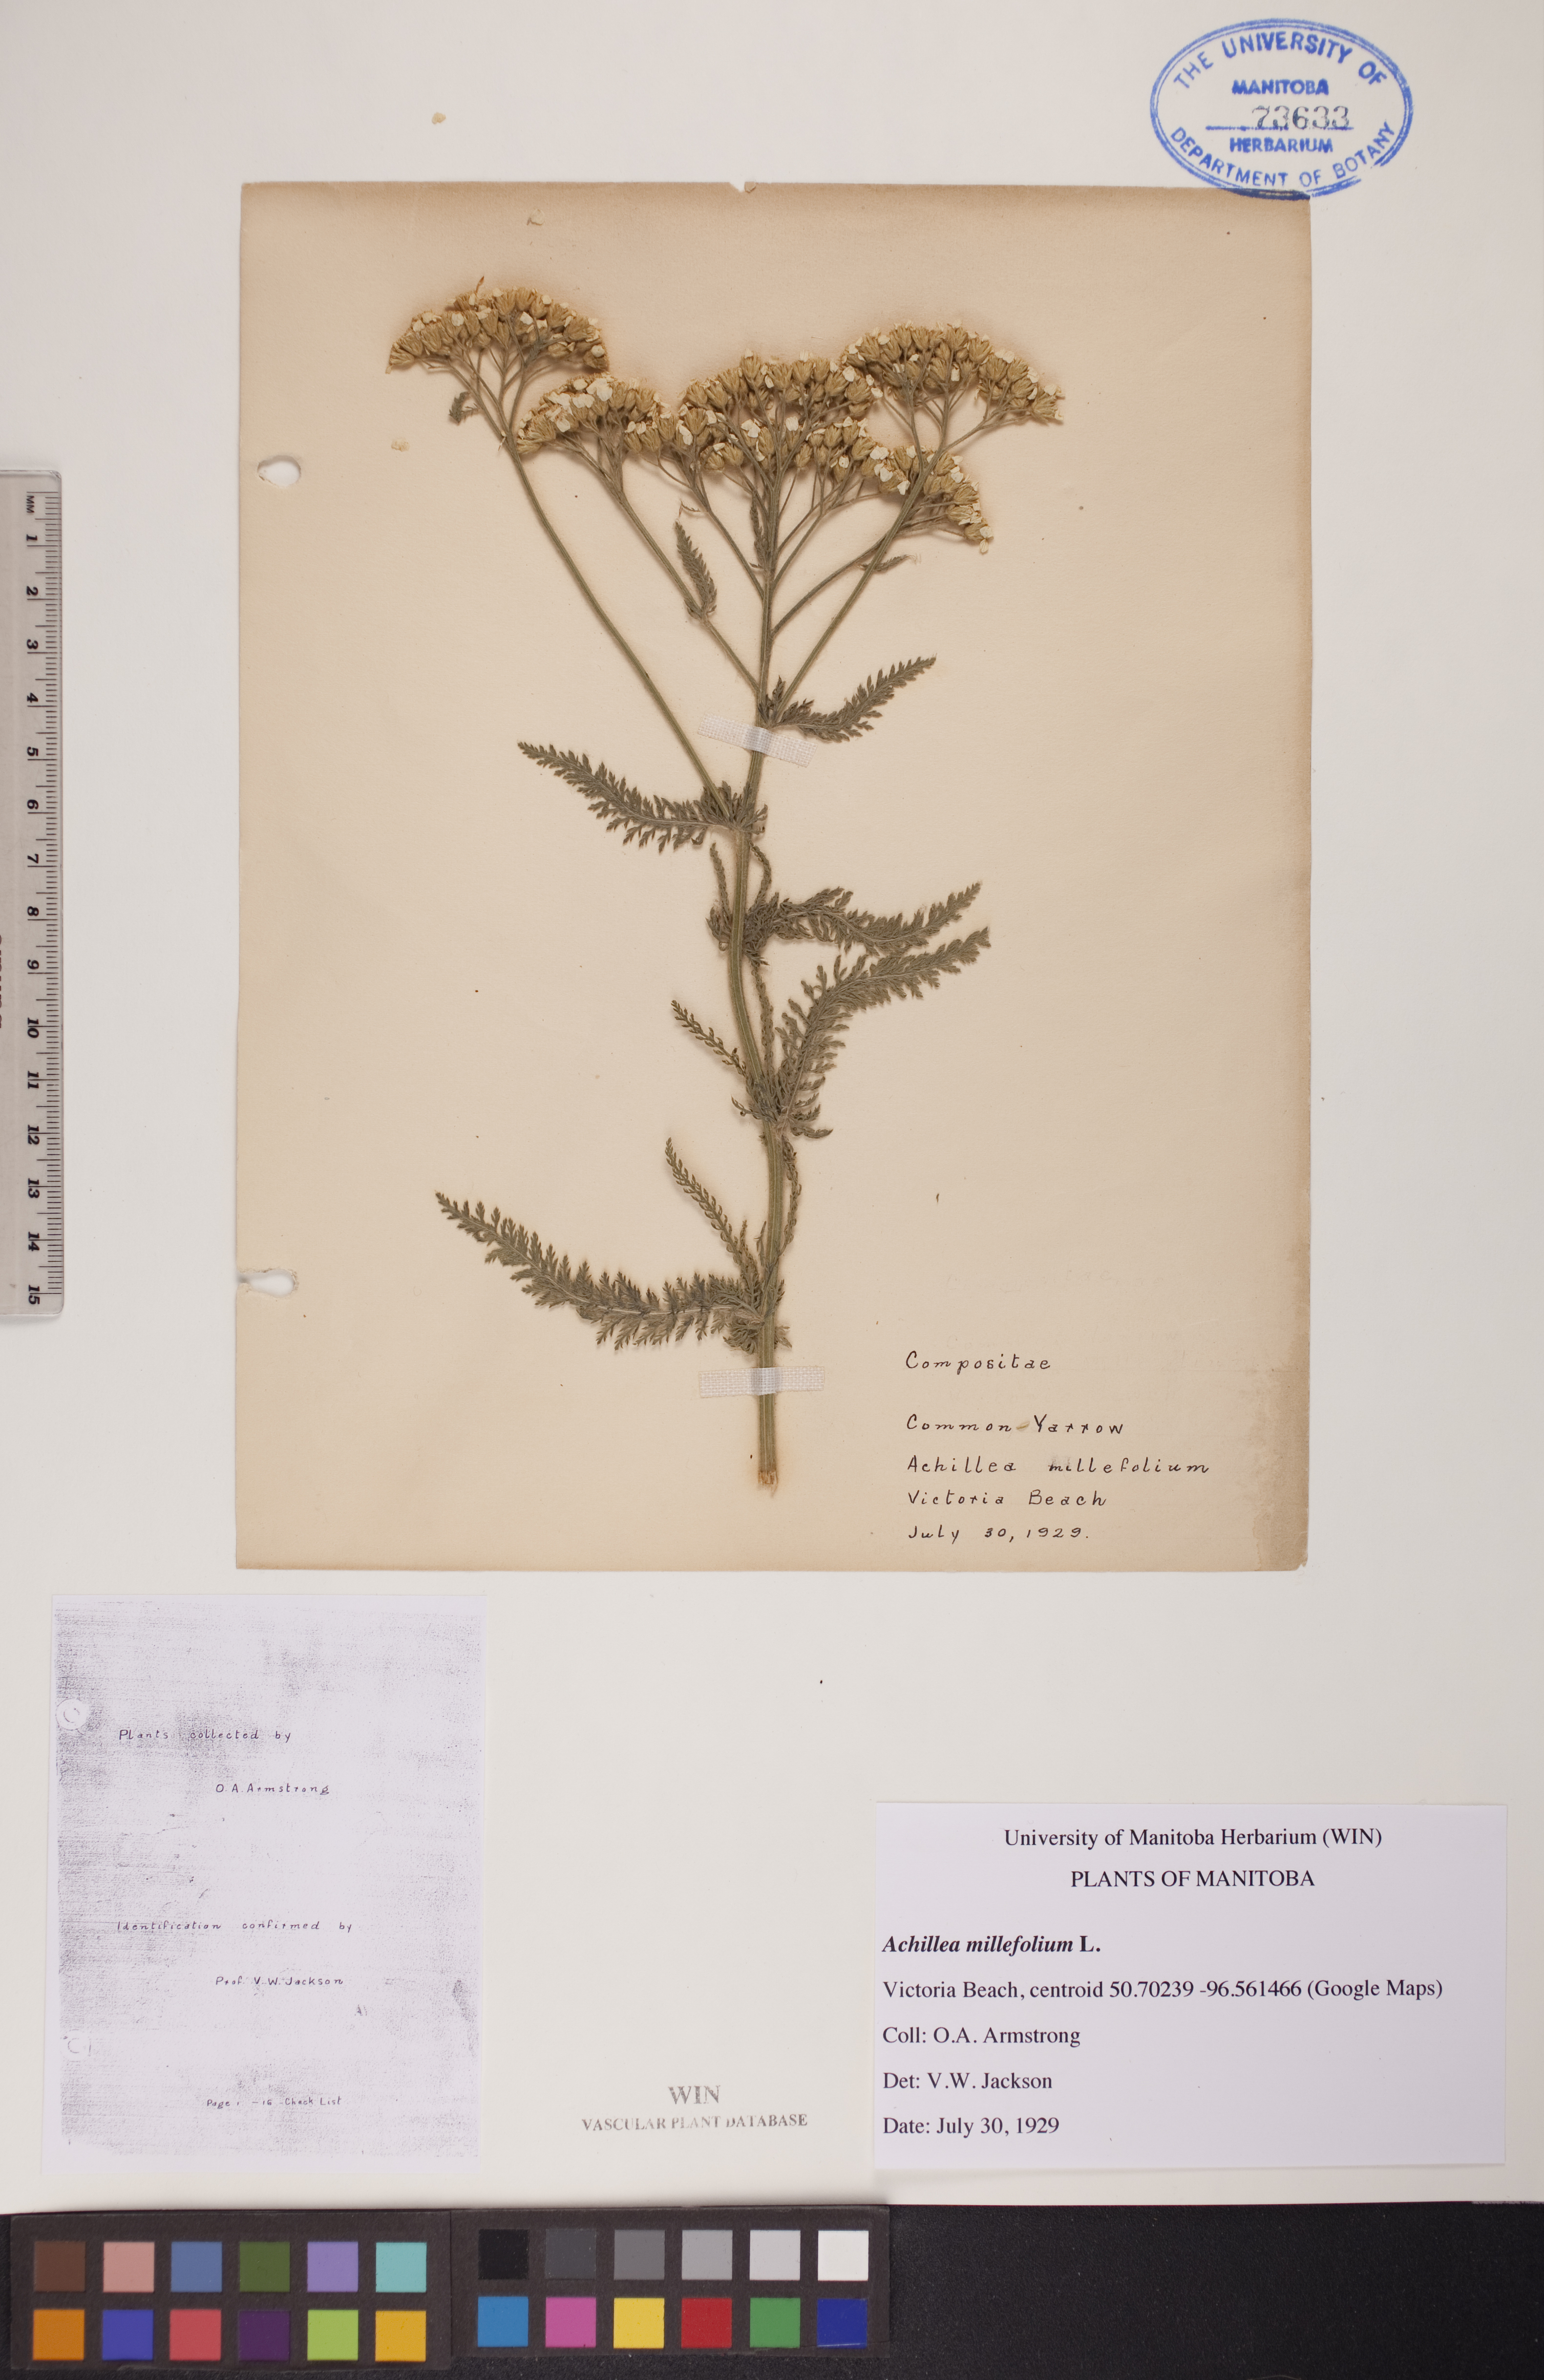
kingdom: Plantae
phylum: Tracheophyta
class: Magnoliopsida
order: Asterales
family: Asteraceae
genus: Achillea
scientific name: Achillea millefolium
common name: Yarrow
